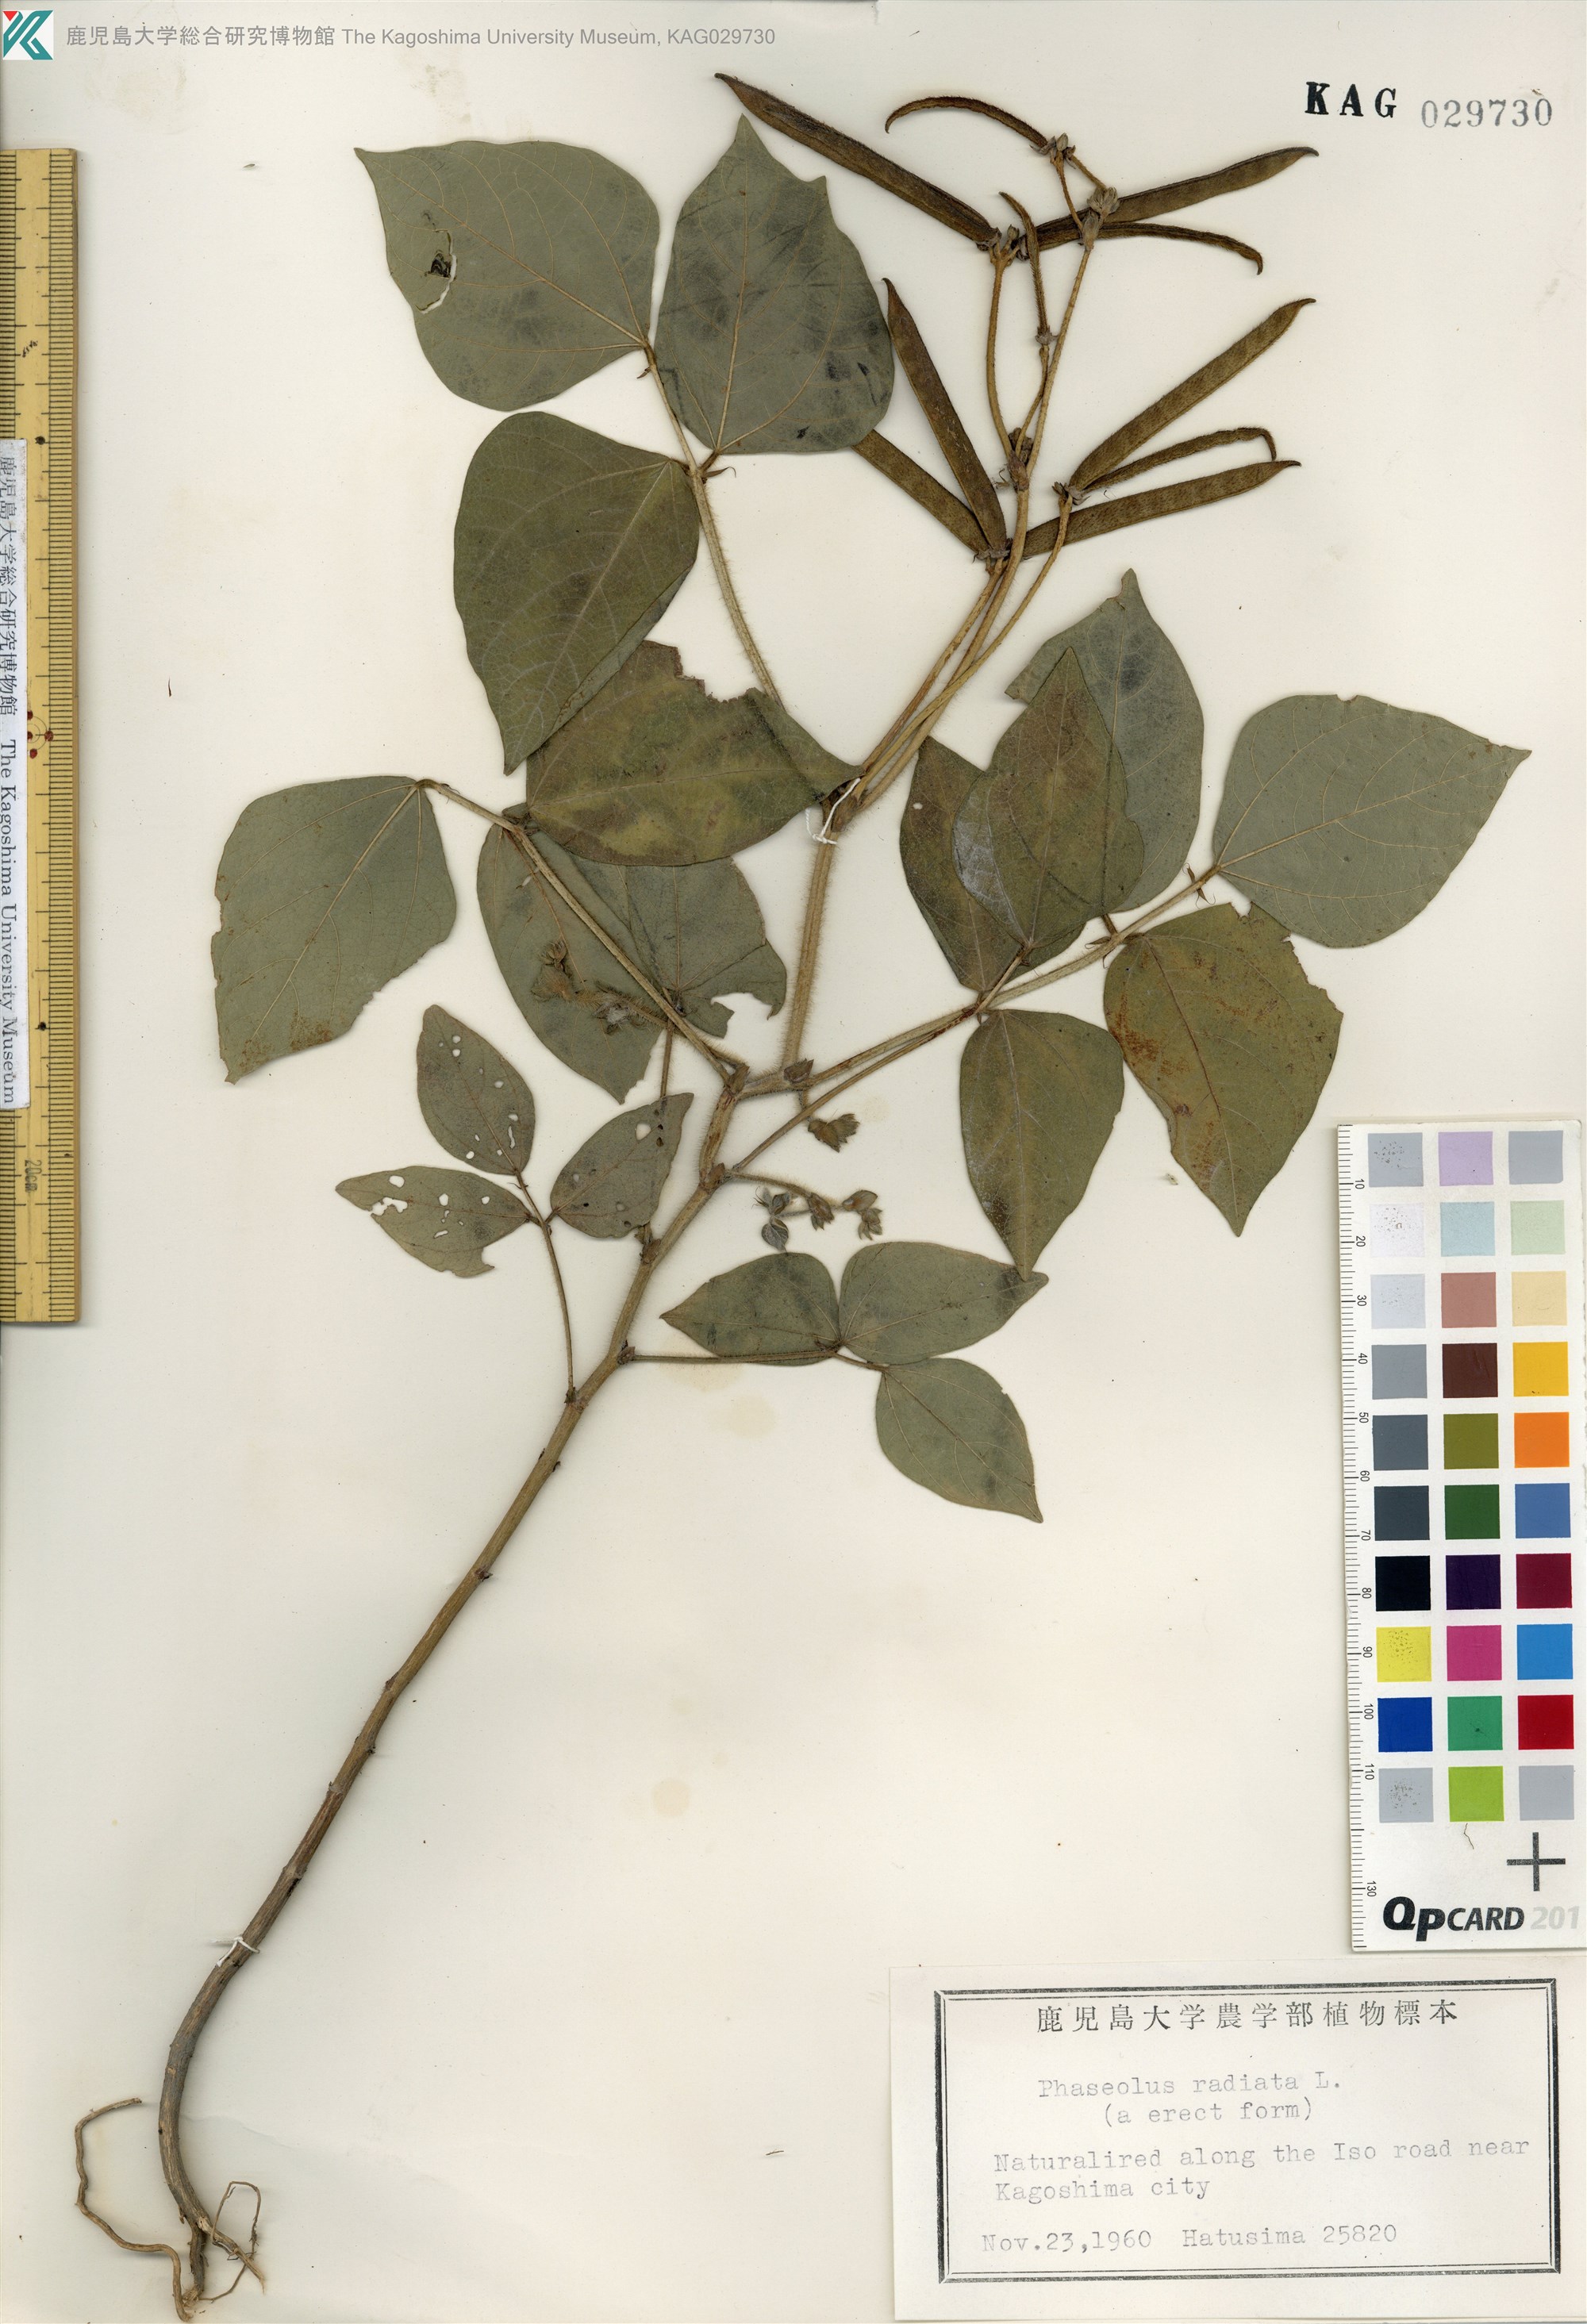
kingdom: Plantae
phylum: Tracheophyta
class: Magnoliopsida
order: Fabales
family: Fabaceae
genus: Vigna
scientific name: Vigna radiata
